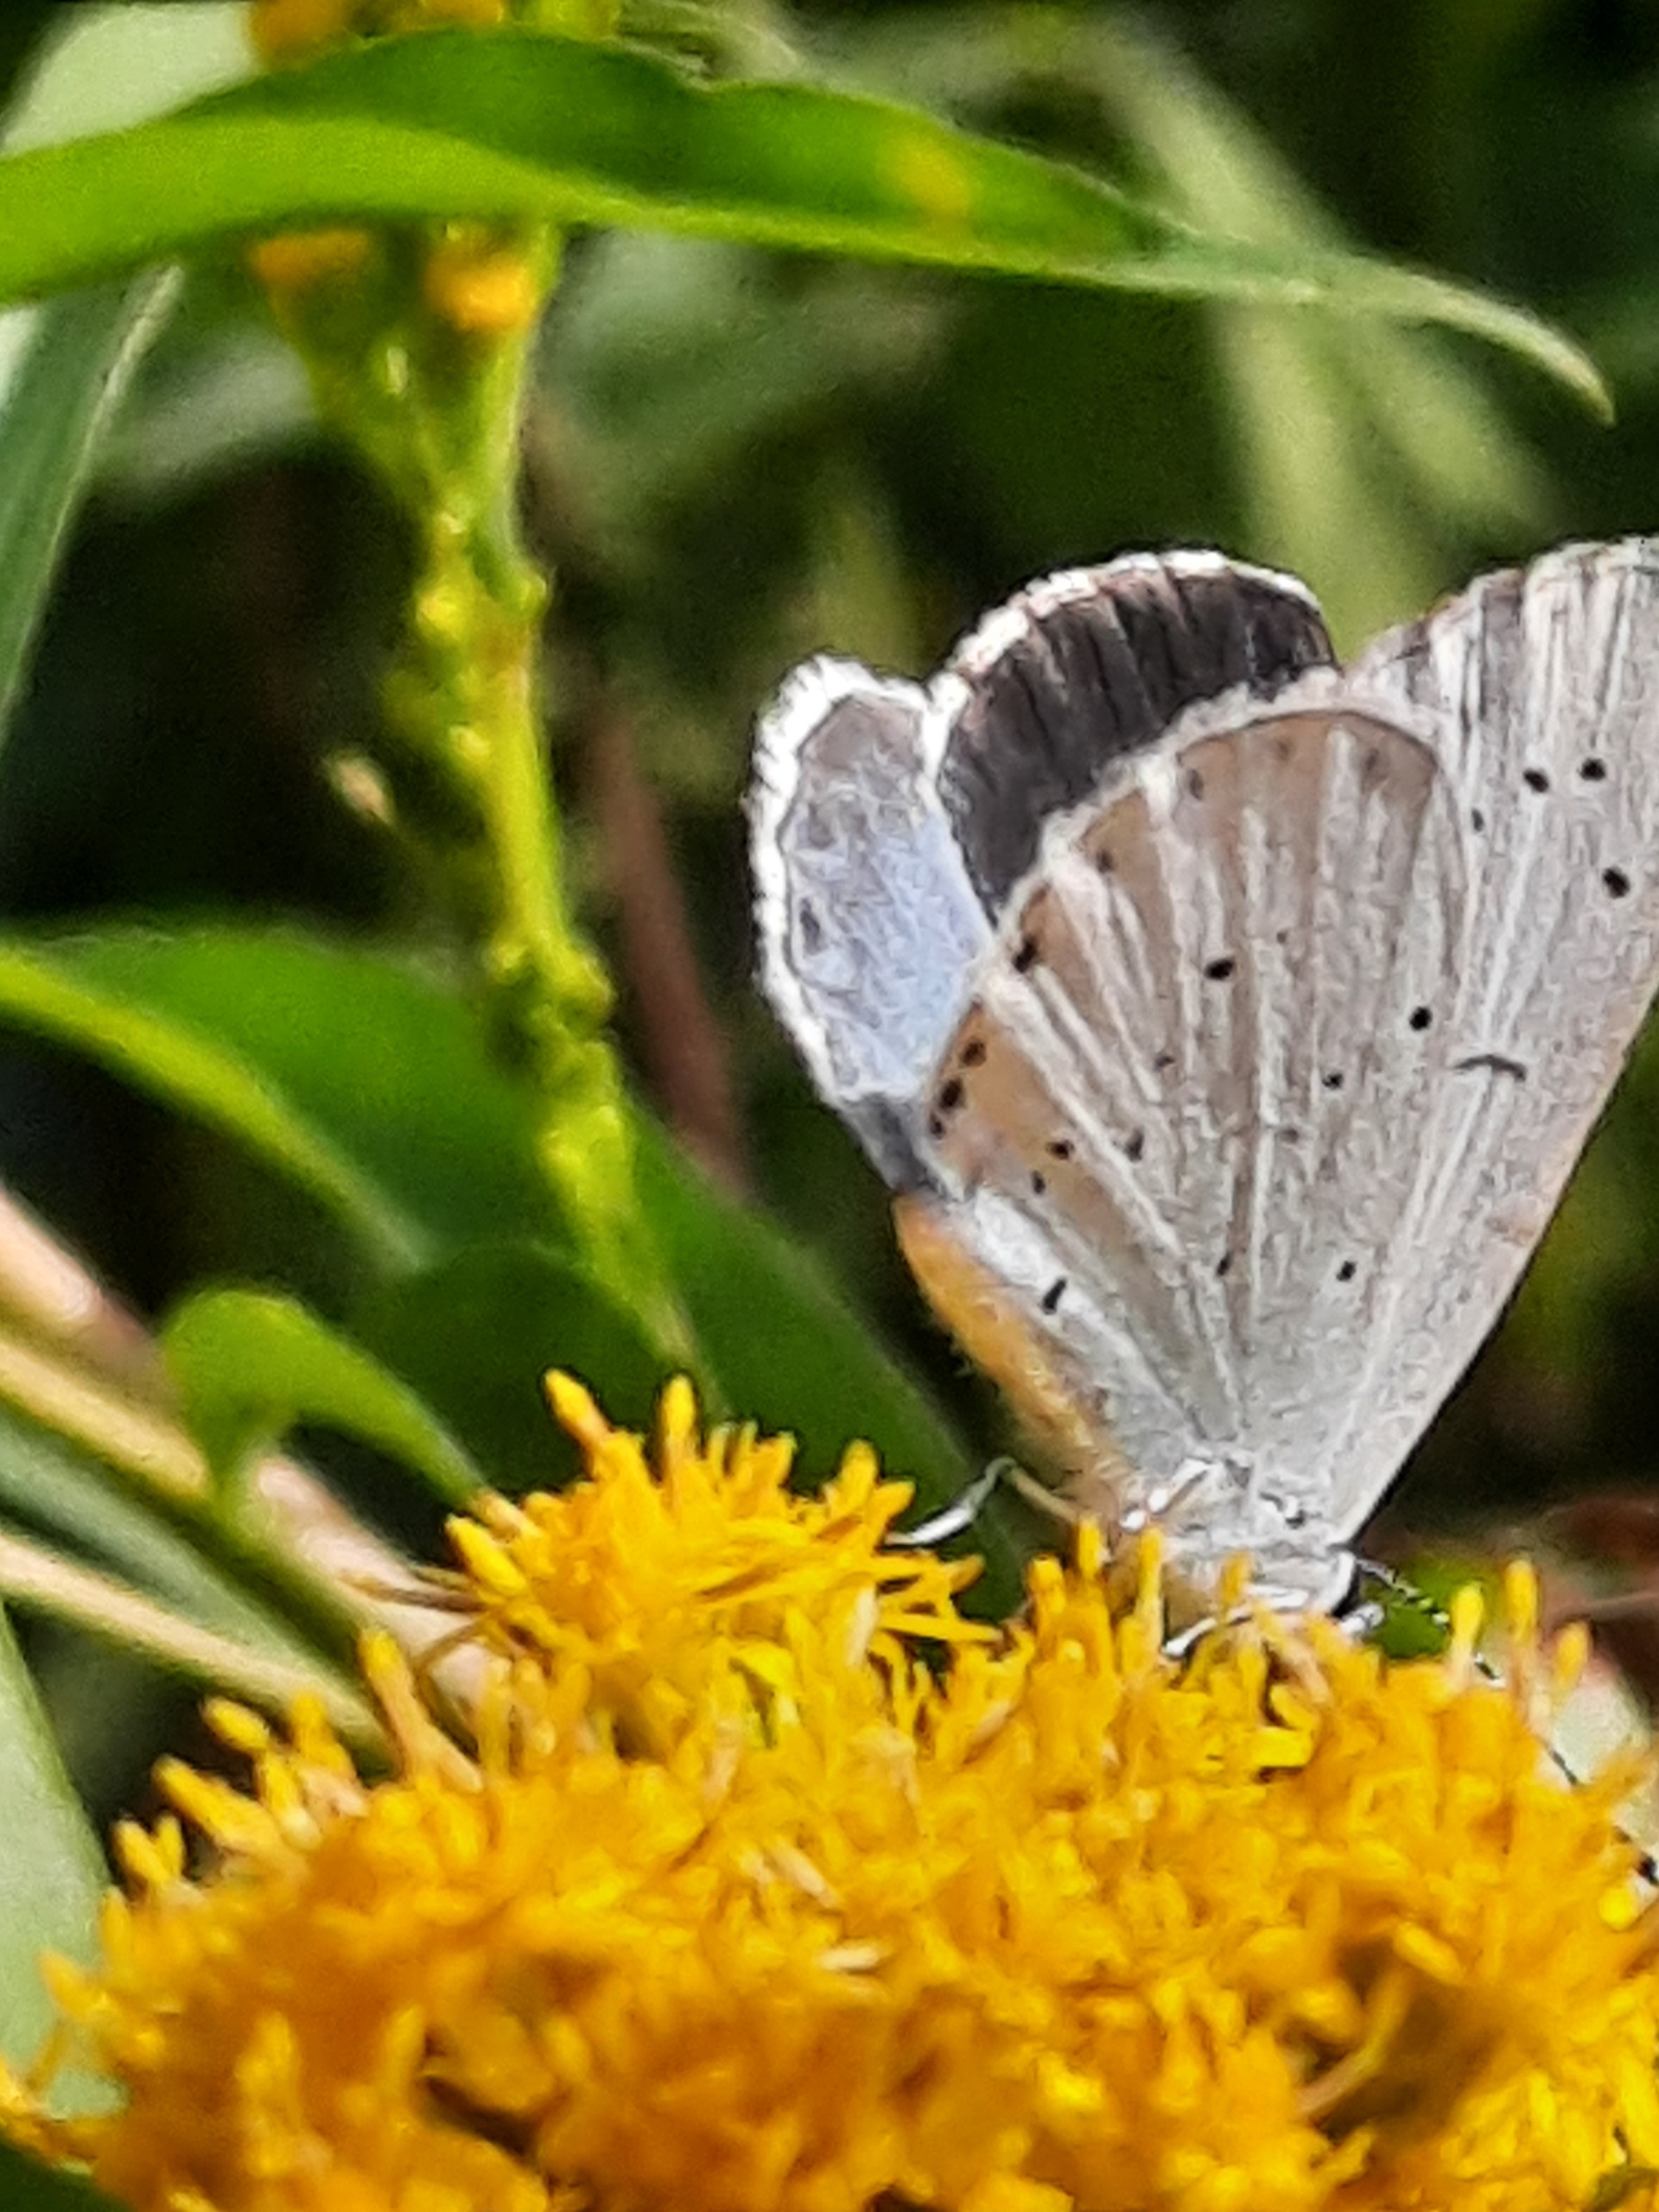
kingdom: Animalia
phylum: Arthropoda
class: Insecta
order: Lepidoptera
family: Lycaenidae
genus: Celastrina
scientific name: Celastrina argiolus
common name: Skovblåfugl
